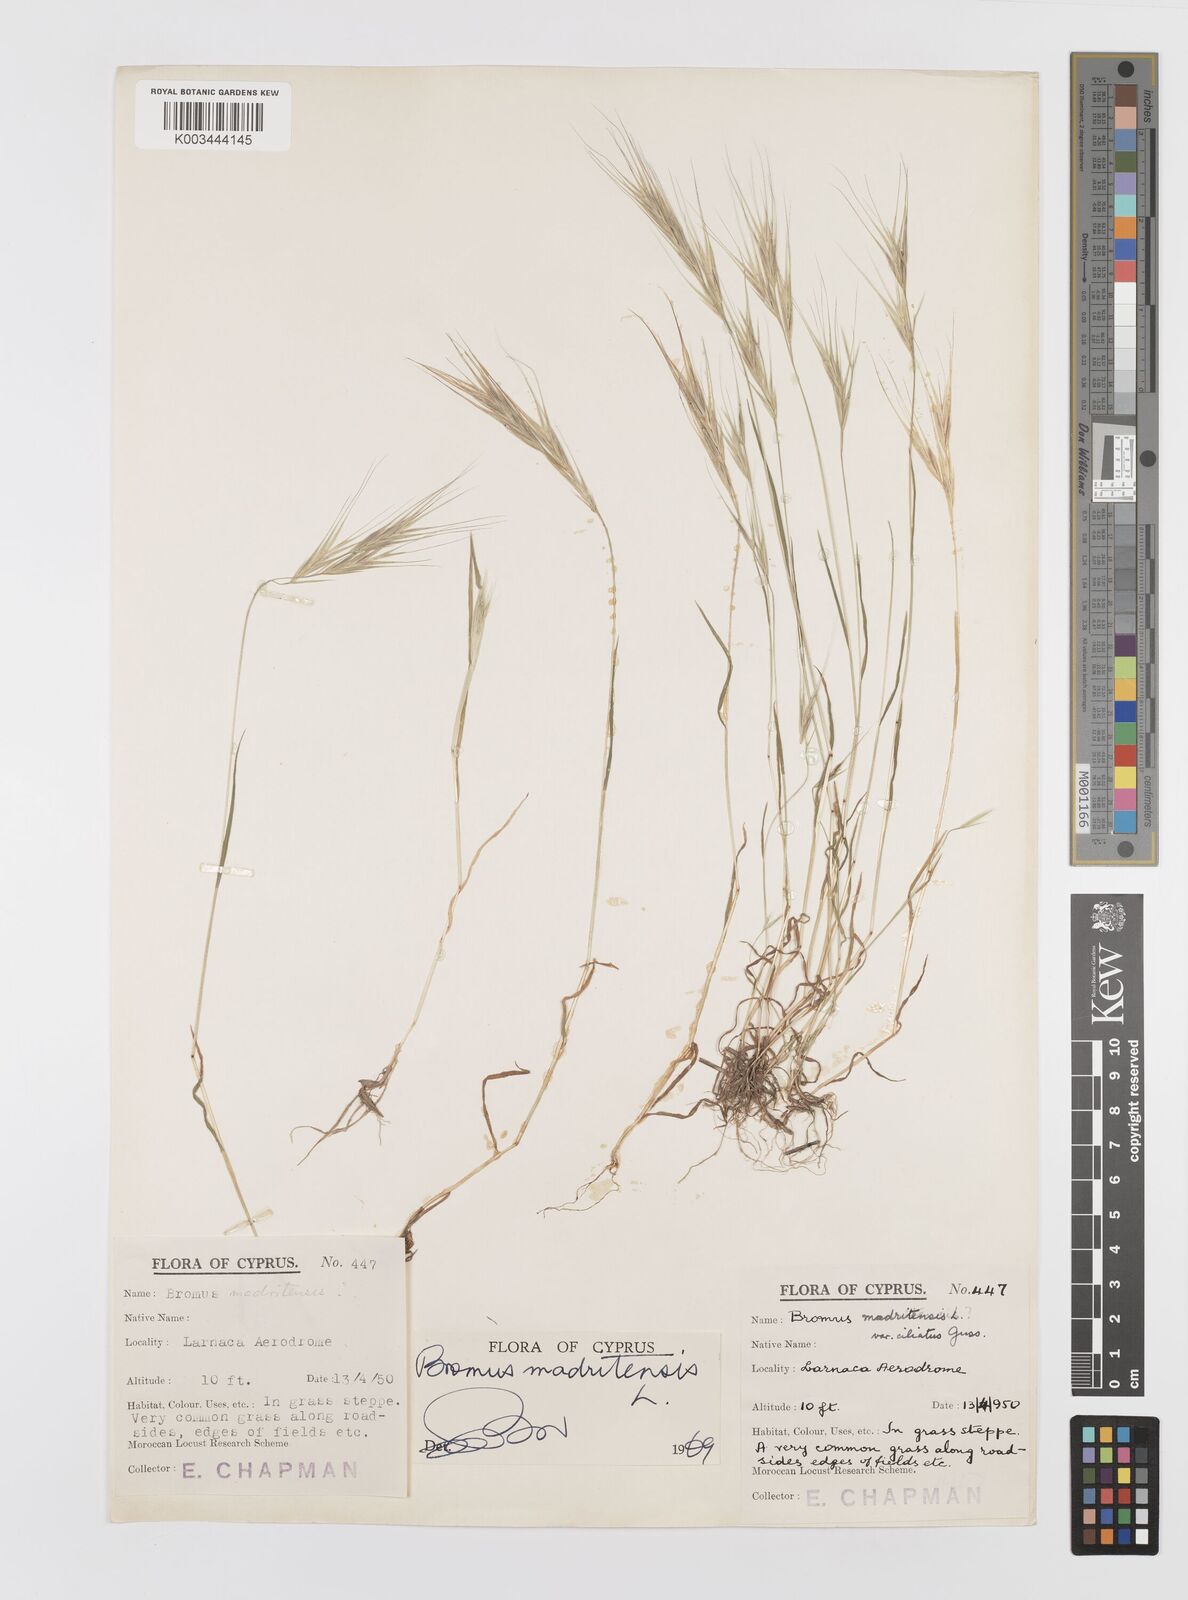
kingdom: Plantae
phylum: Tracheophyta
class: Liliopsida
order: Poales
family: Poaceae
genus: Bromus
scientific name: Bromus madritensis
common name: Compact brome
